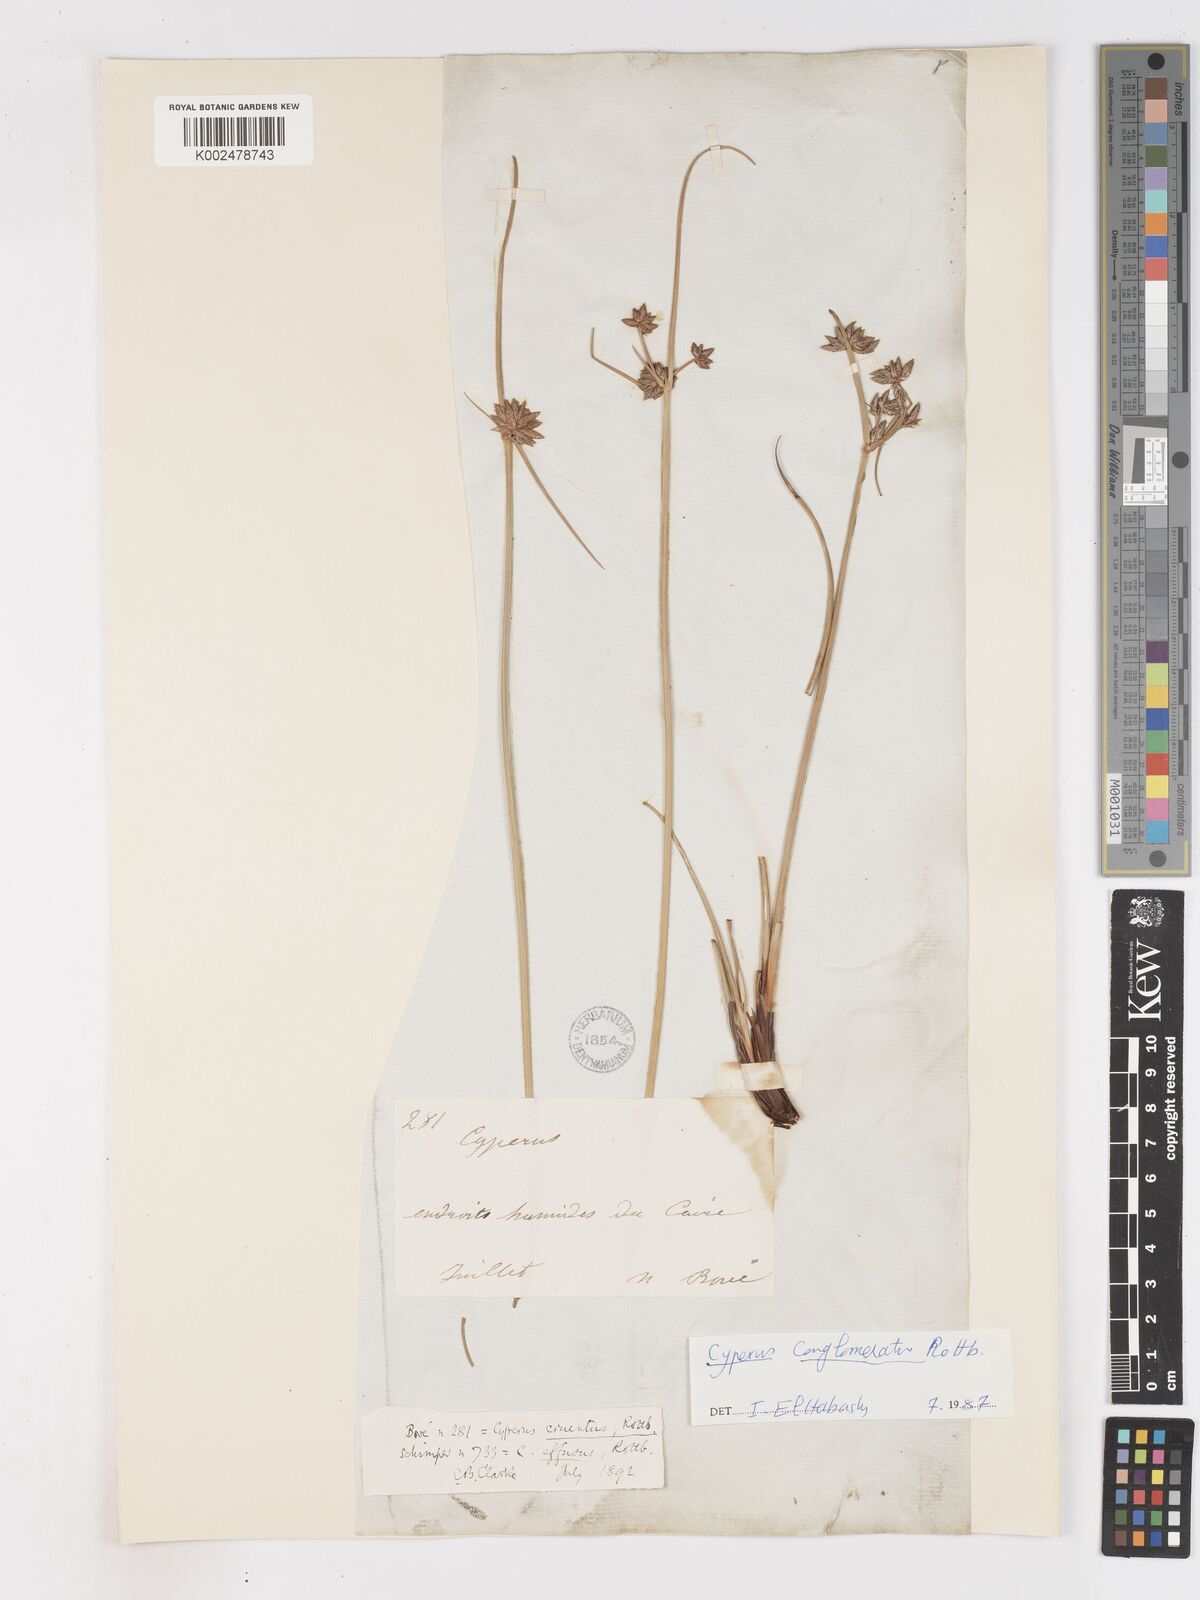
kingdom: Plantae
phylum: Tracheophyta
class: Liliopsida
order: Poales
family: Cyperaceae
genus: Cyperus
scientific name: Cyperus conglomeratus
